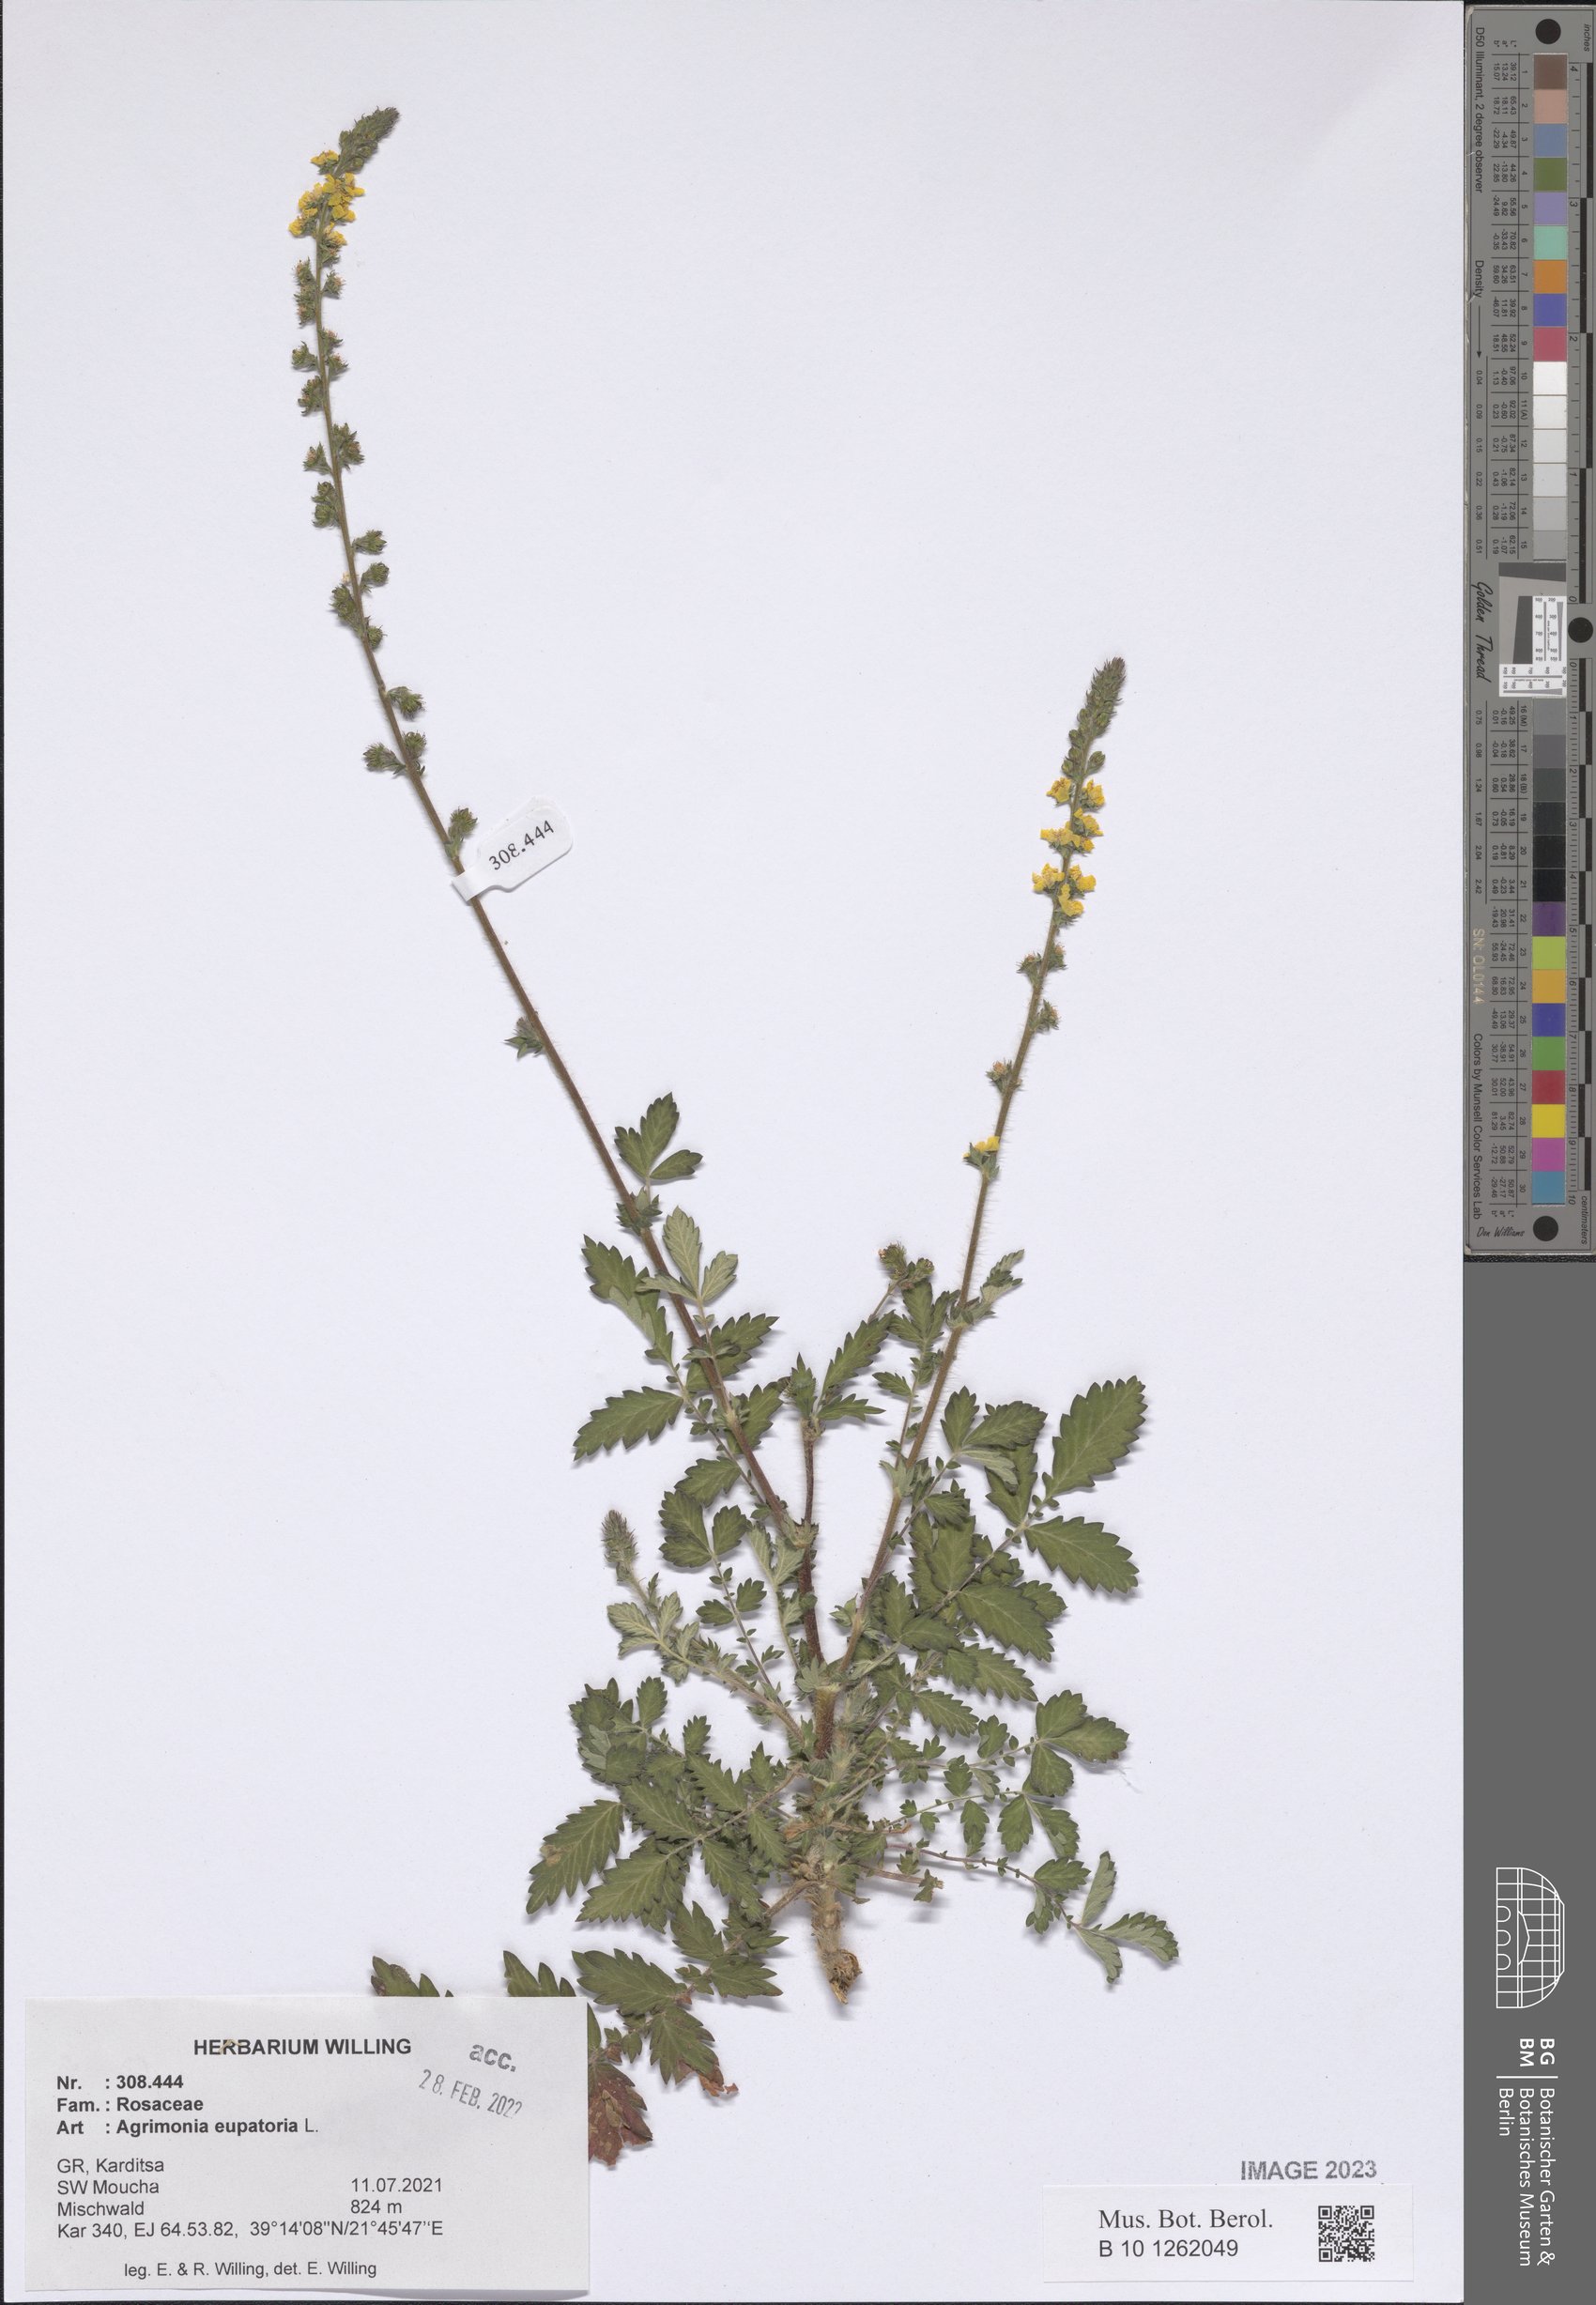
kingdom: Plantae
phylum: Tracheophyta
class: Magnoliopsida
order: Rosales
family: Rosaceae
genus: Agrimonia
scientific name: Agrimonia eupatoria
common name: Agrimony
